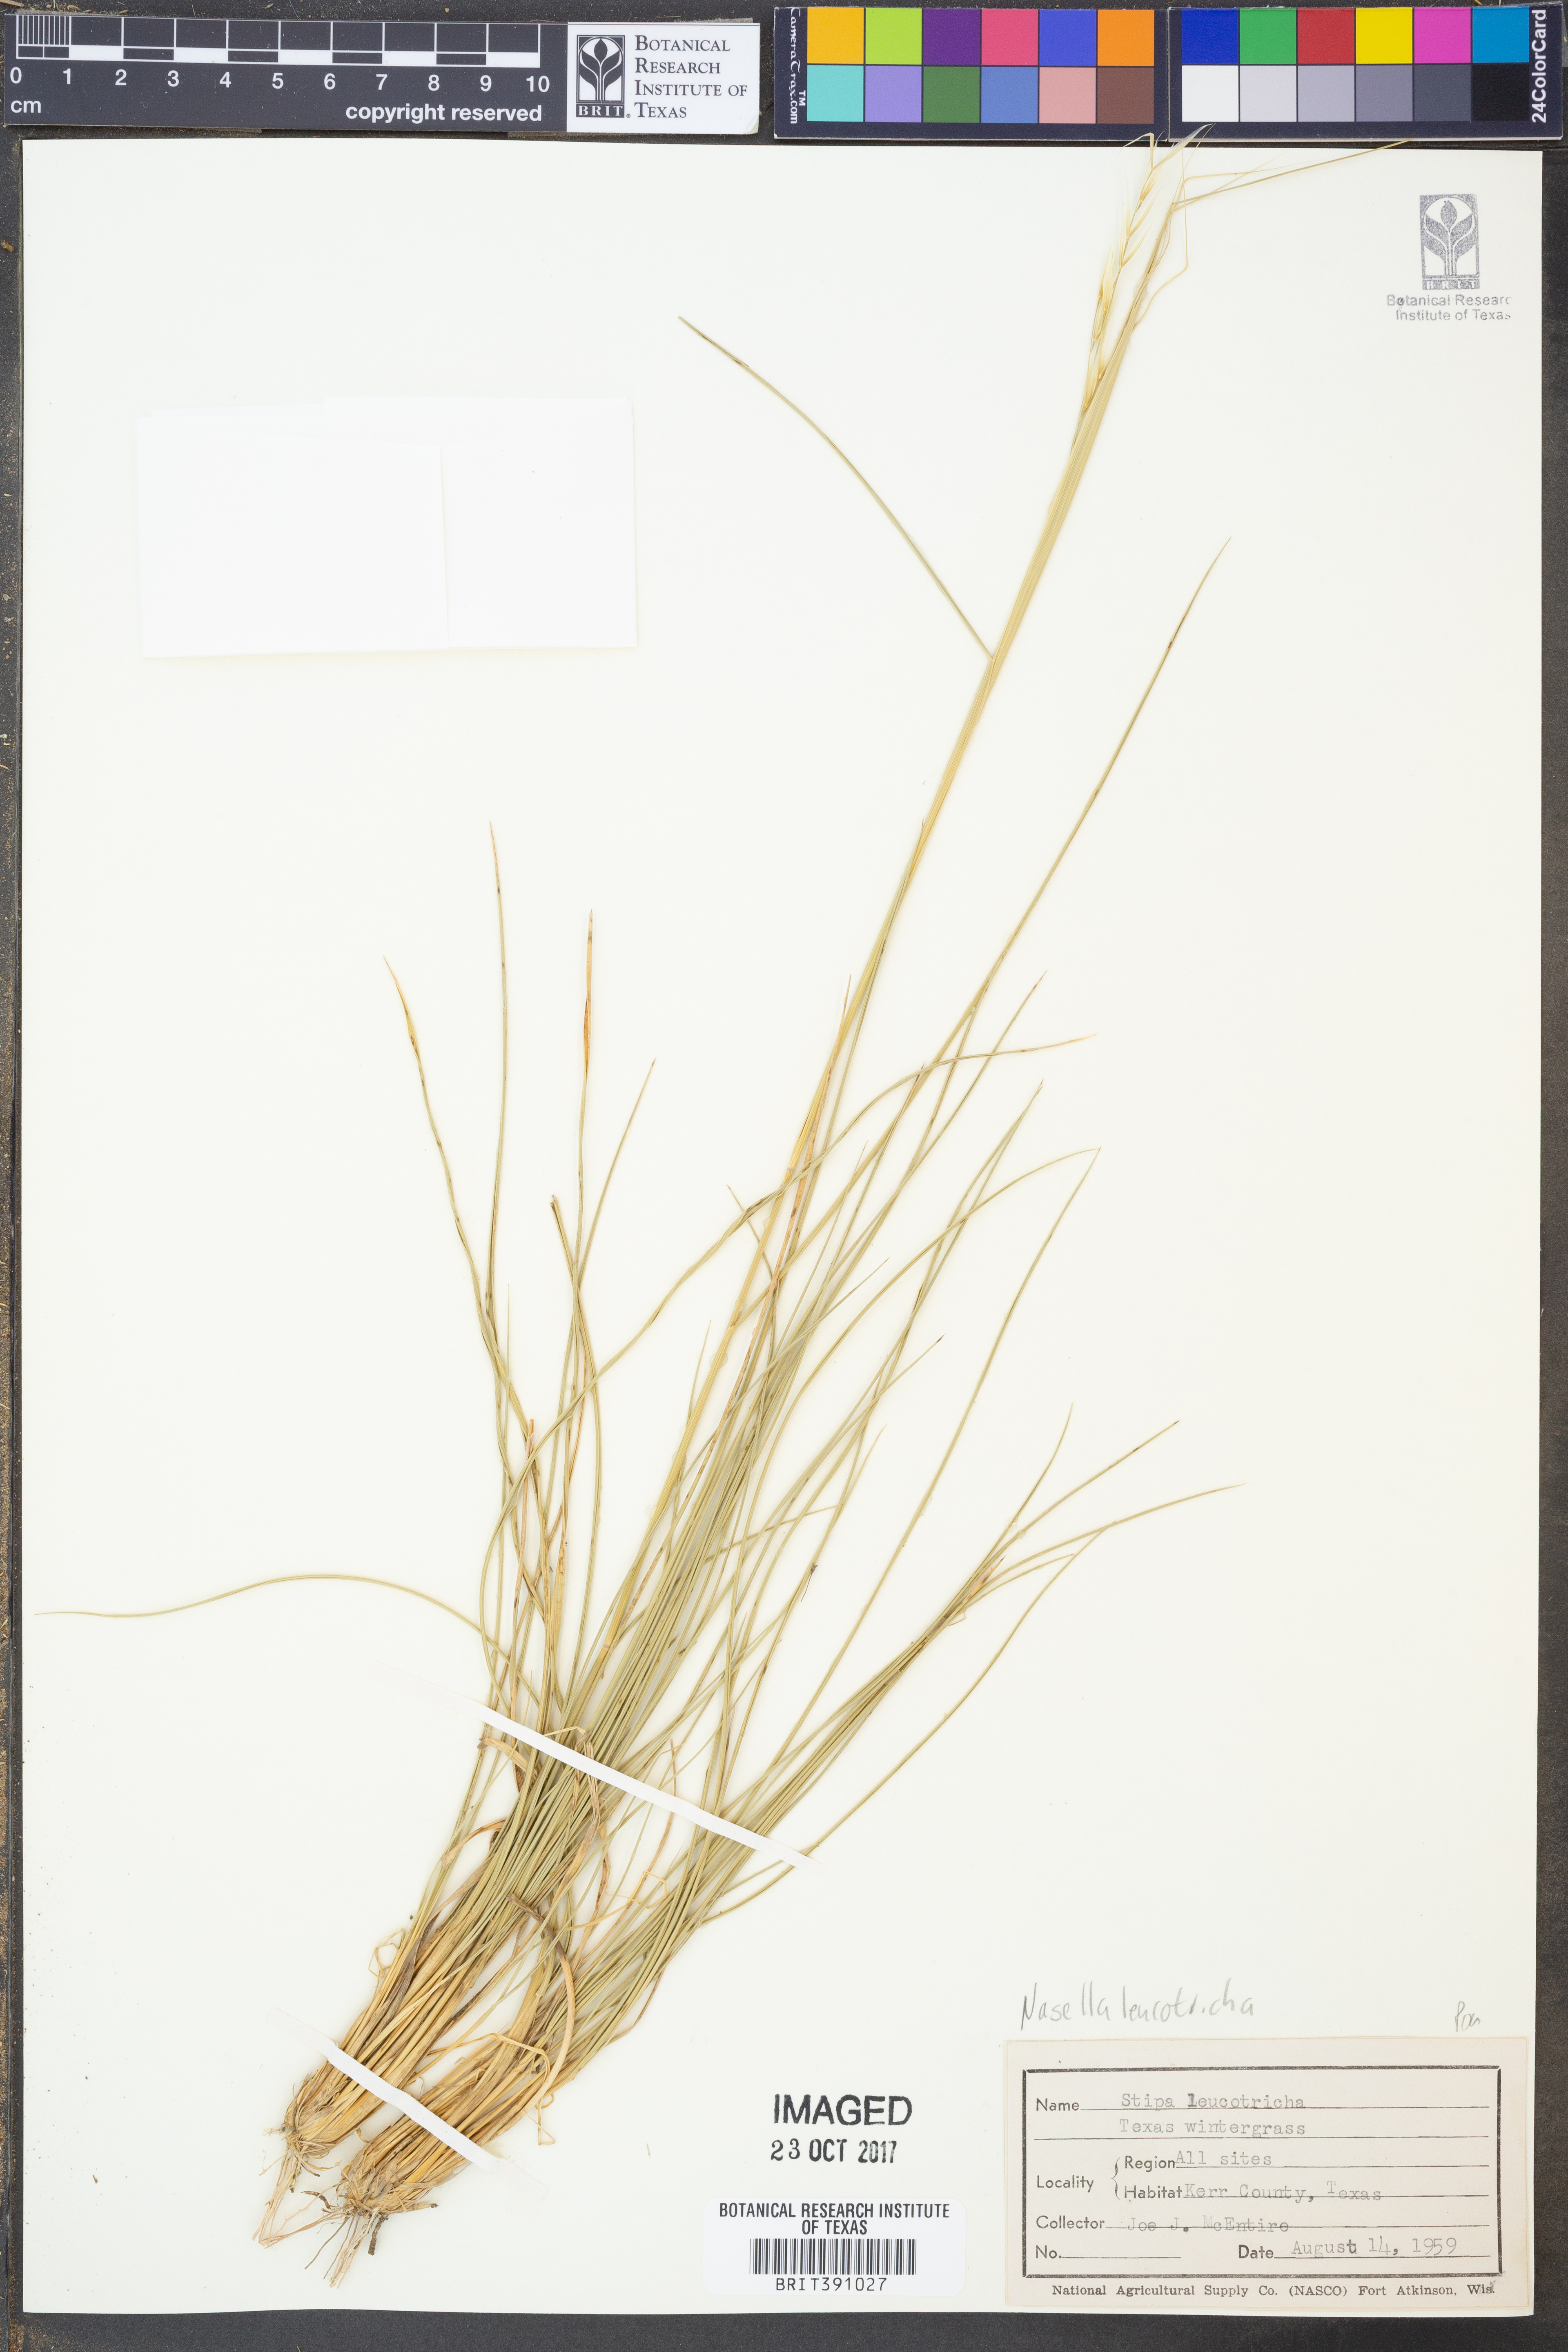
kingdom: Plantae
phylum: Tracheophyta
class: Liliopsida
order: Poales
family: Poaceae
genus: Nassella
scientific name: Nassella leucotricha
